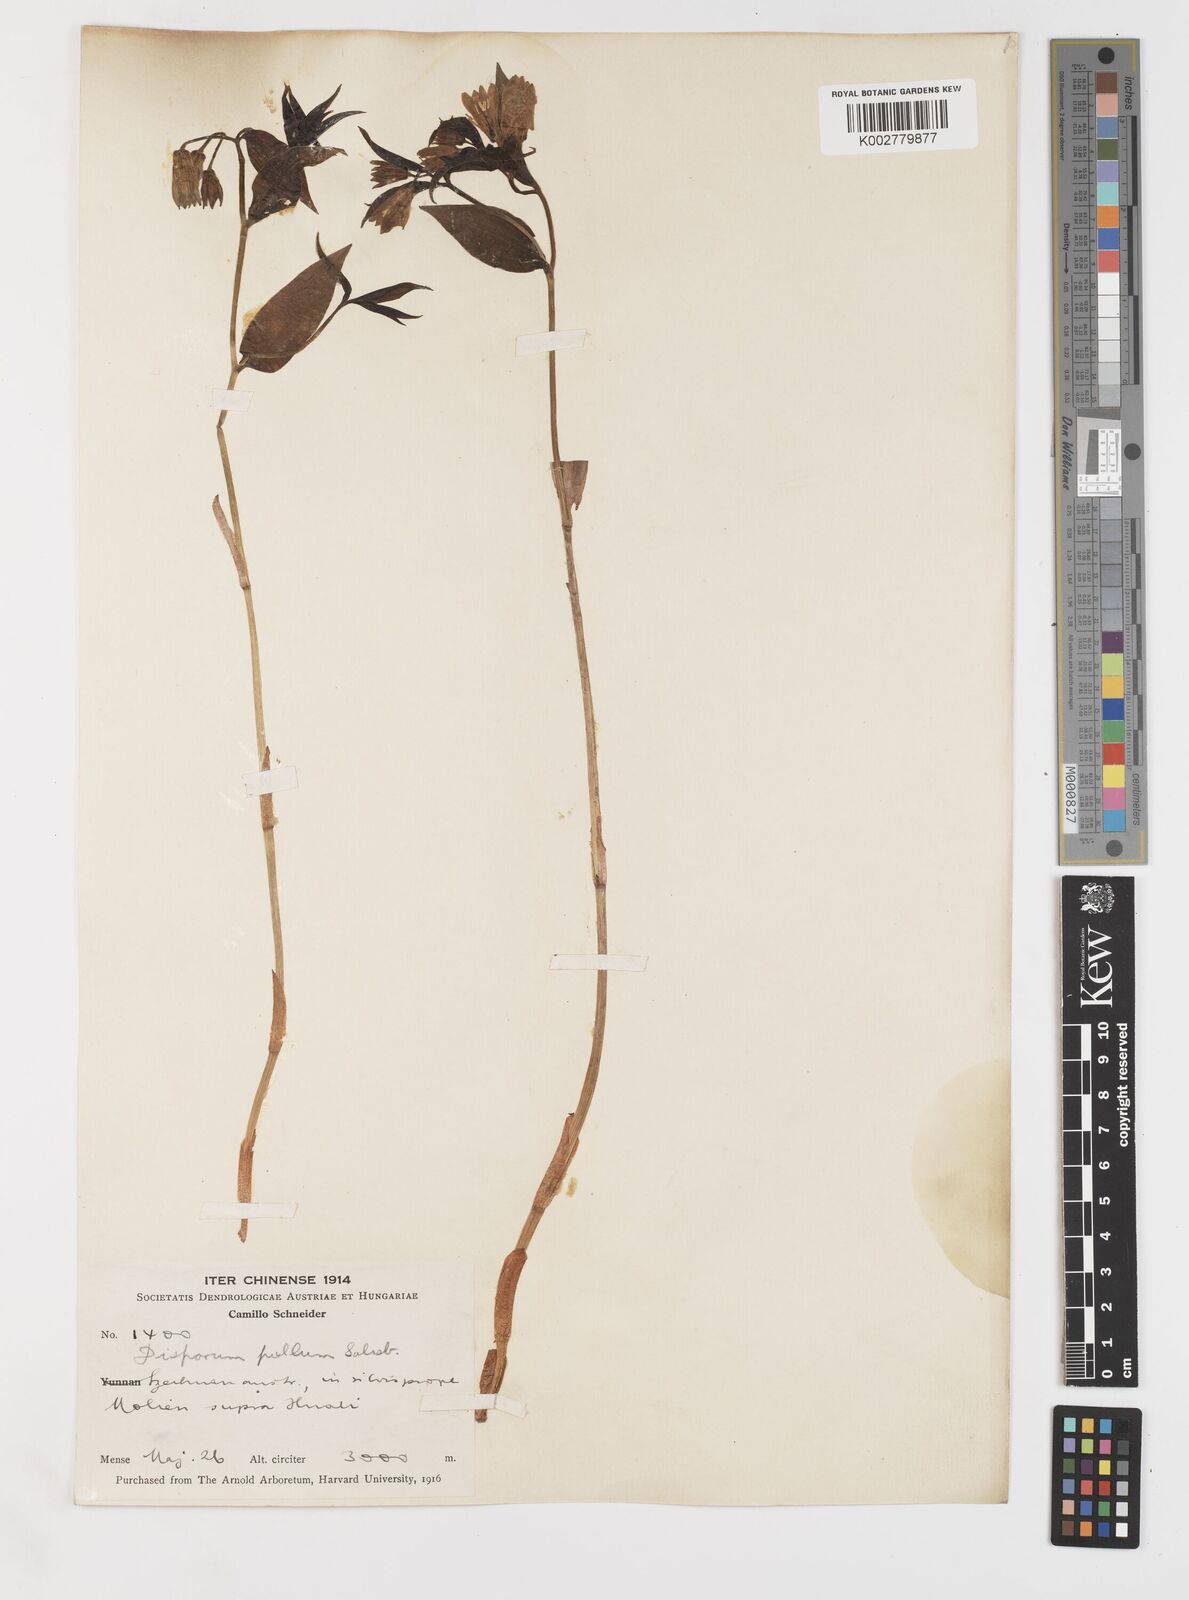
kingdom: Plantae
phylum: Tracheophyta
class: Liliopsida
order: Liliales
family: Colchicaceae
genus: Disporum
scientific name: Disporum
